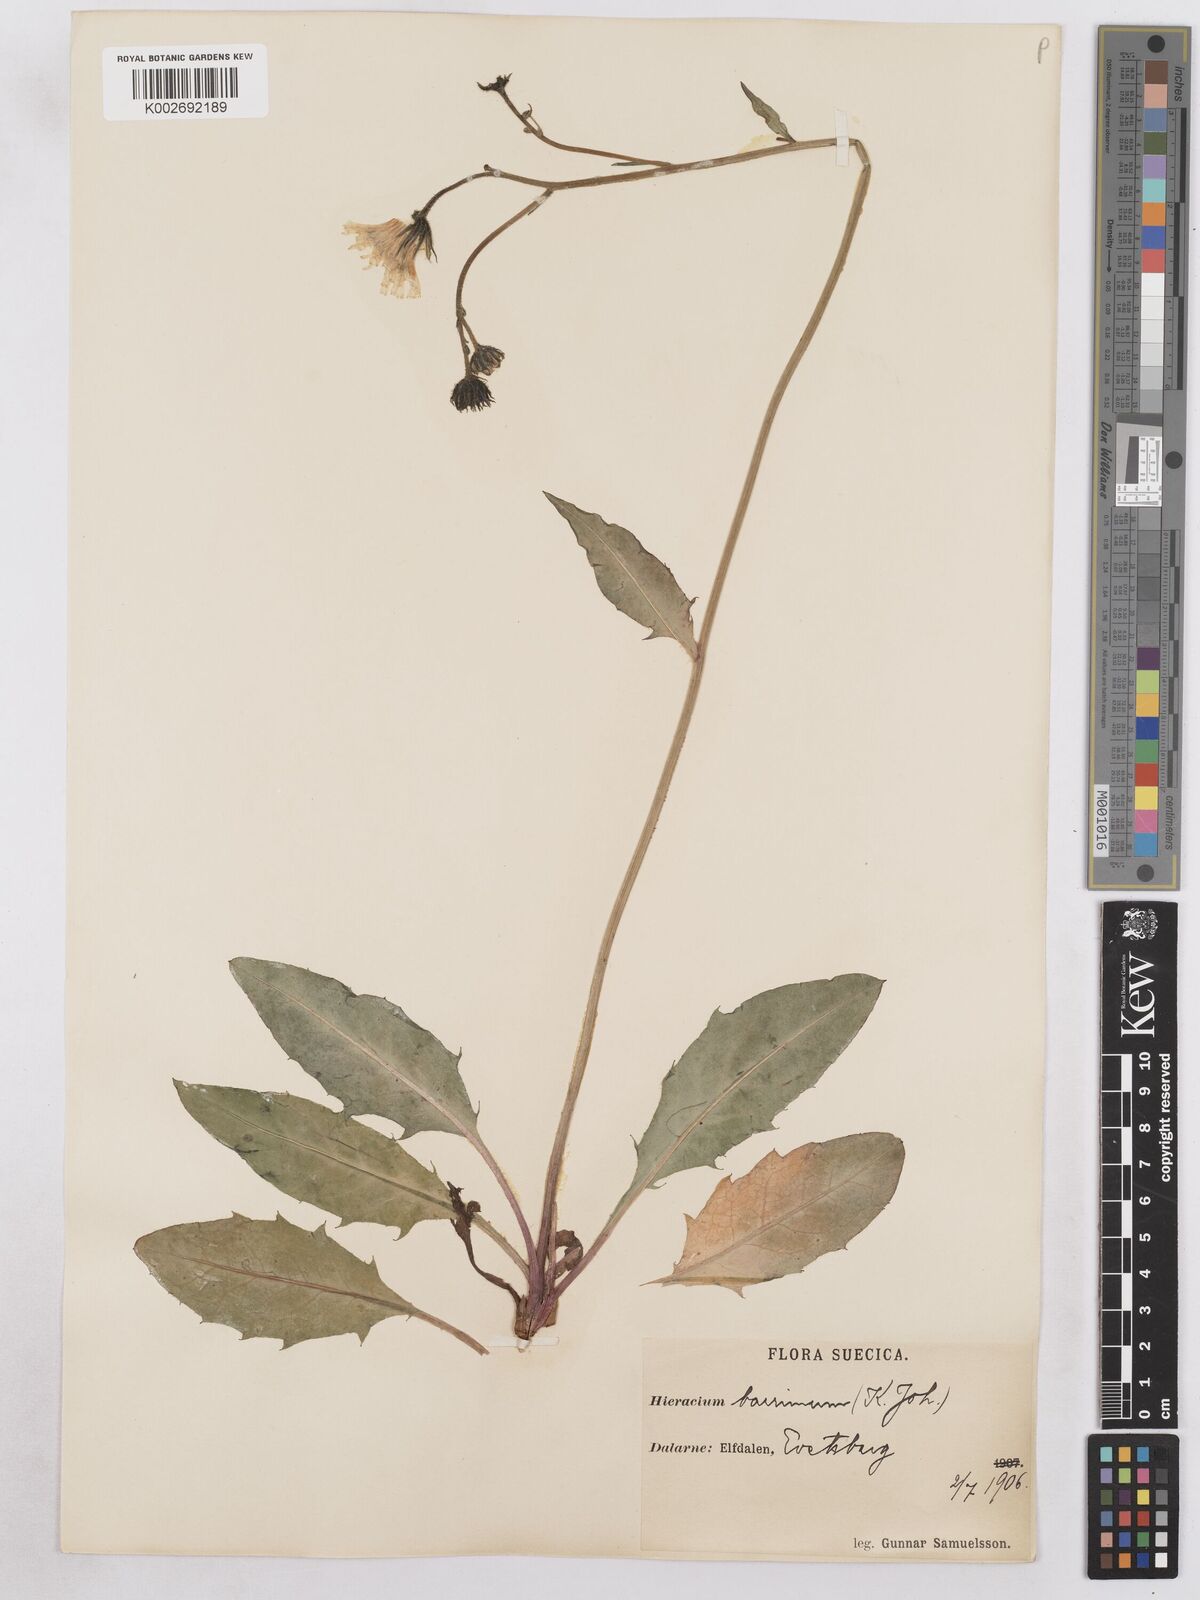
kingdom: Plantae
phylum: Tracheophyta
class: Magnoliopsida
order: Asterales
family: Asteraceae
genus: Hieracium
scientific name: Hieracium diaphanoides
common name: Fine-bracted hawkweed
